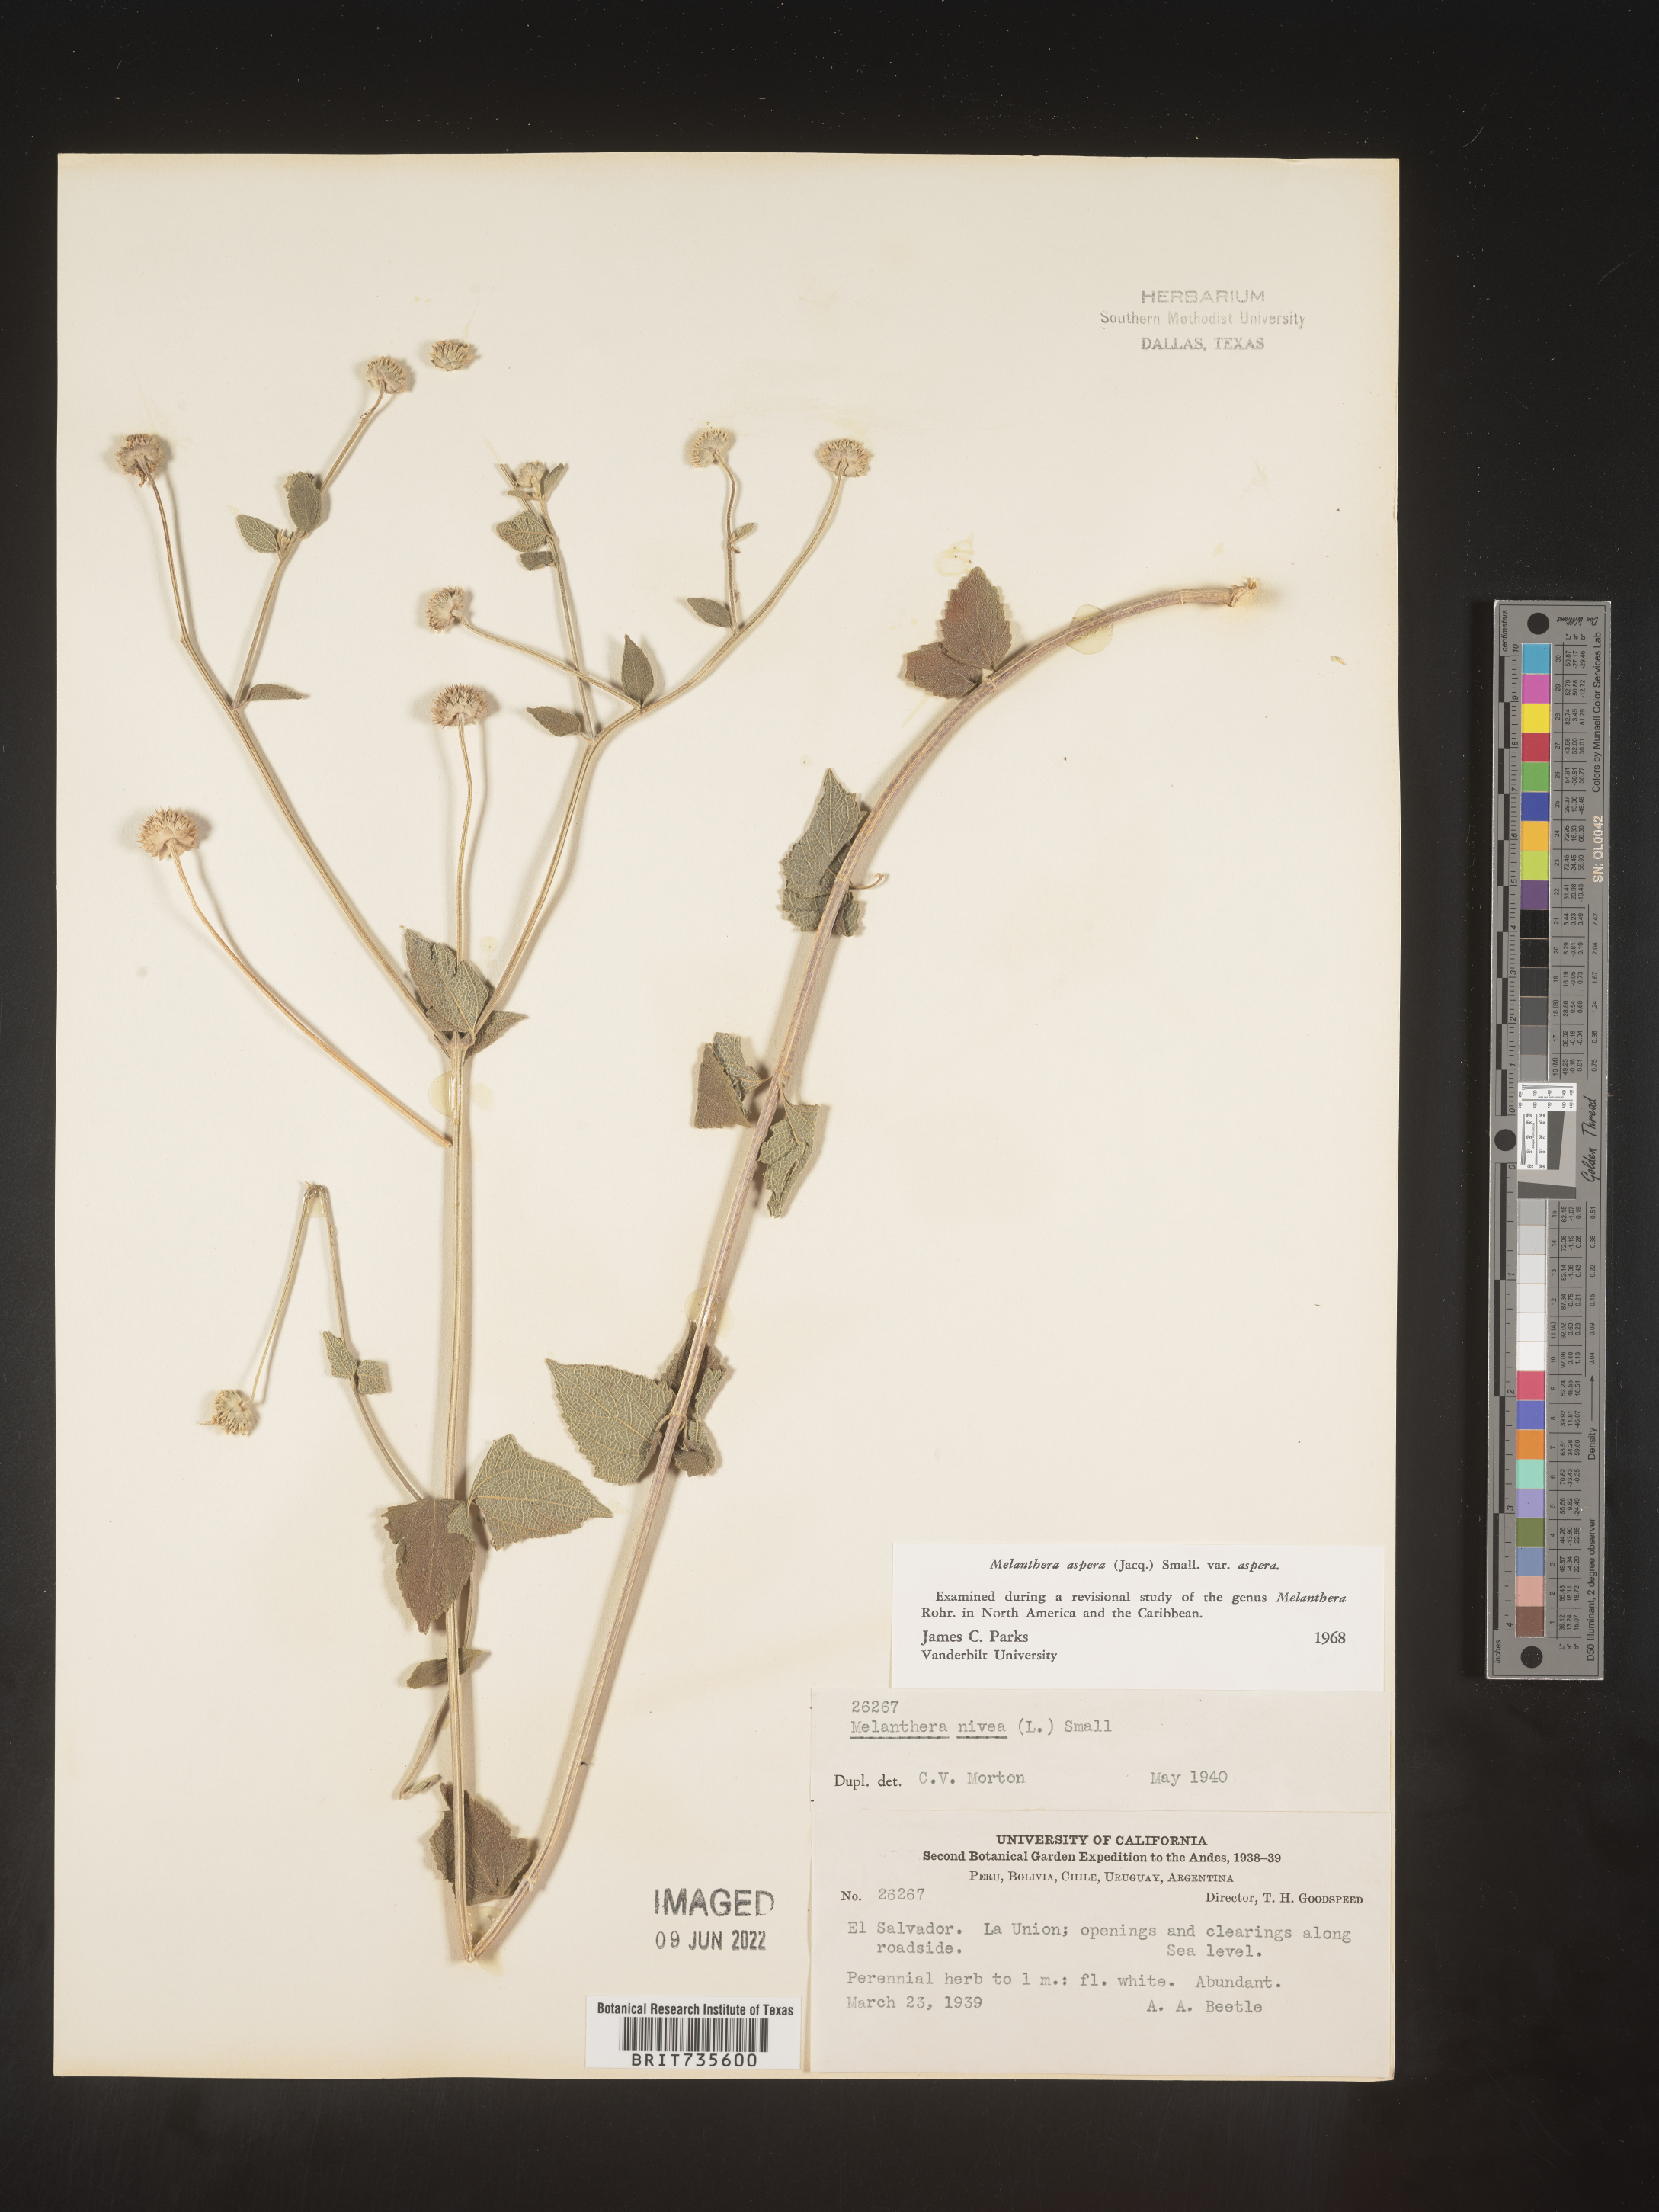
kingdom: Plantae
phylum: Tracheophyta
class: Magnoliopsida
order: Asterales
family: Asteraceae
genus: Melanthera
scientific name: Melanthera
